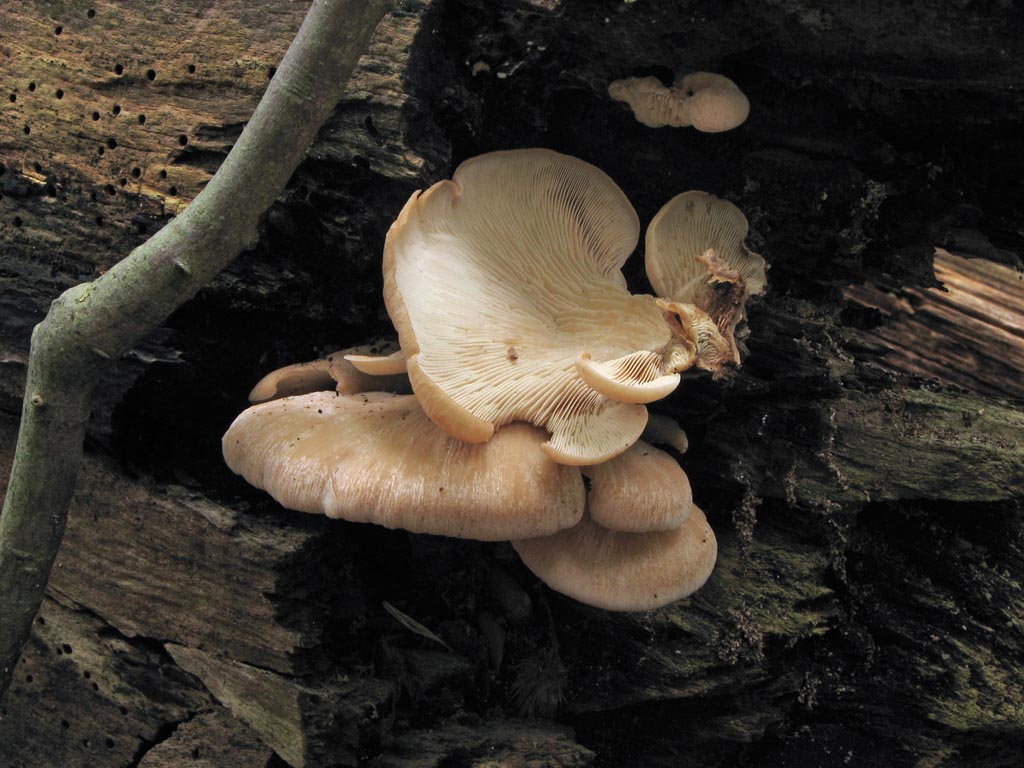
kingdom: Fungi
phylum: Basidiomycota
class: Agaricomycetes
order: Russulales
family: Auriscalpiaceae
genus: Lentinellus
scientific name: Lentinellus ursinus
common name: børstehåret savbladhat
